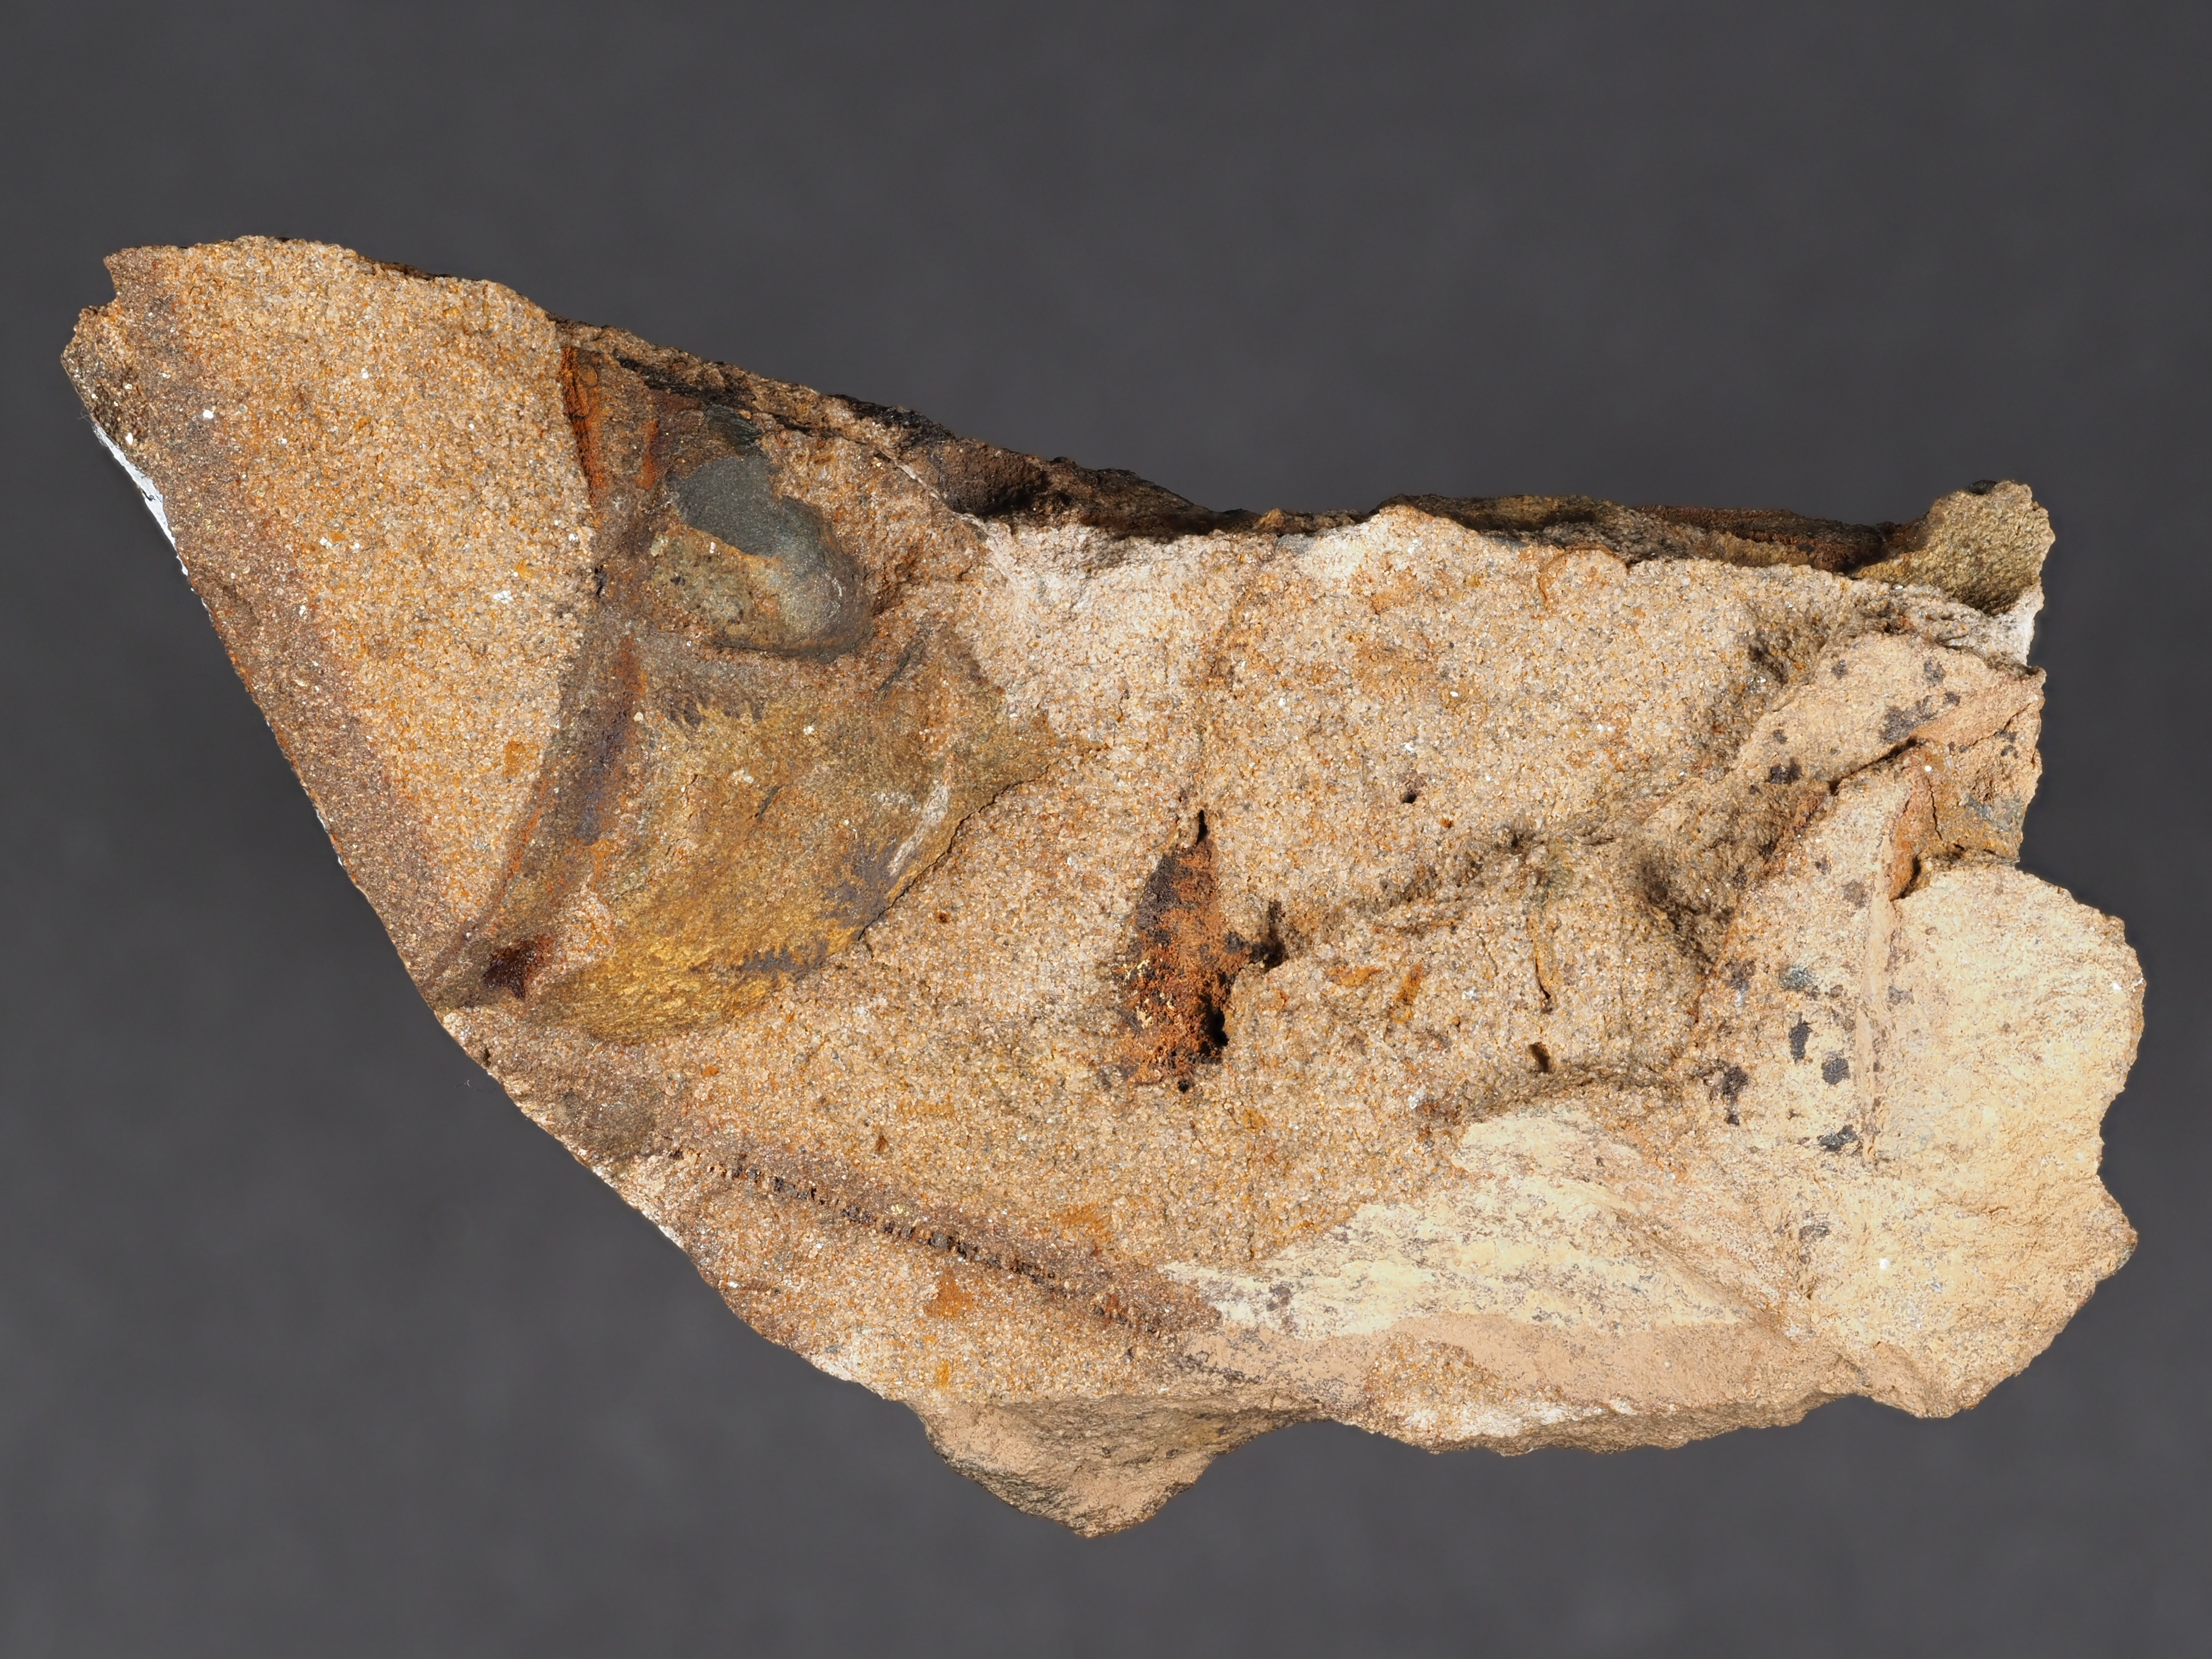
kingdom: Animalia
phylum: Arthropoda
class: Trilobita
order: Phacopida
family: Homalonotidae
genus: Digonus
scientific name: Digonus
